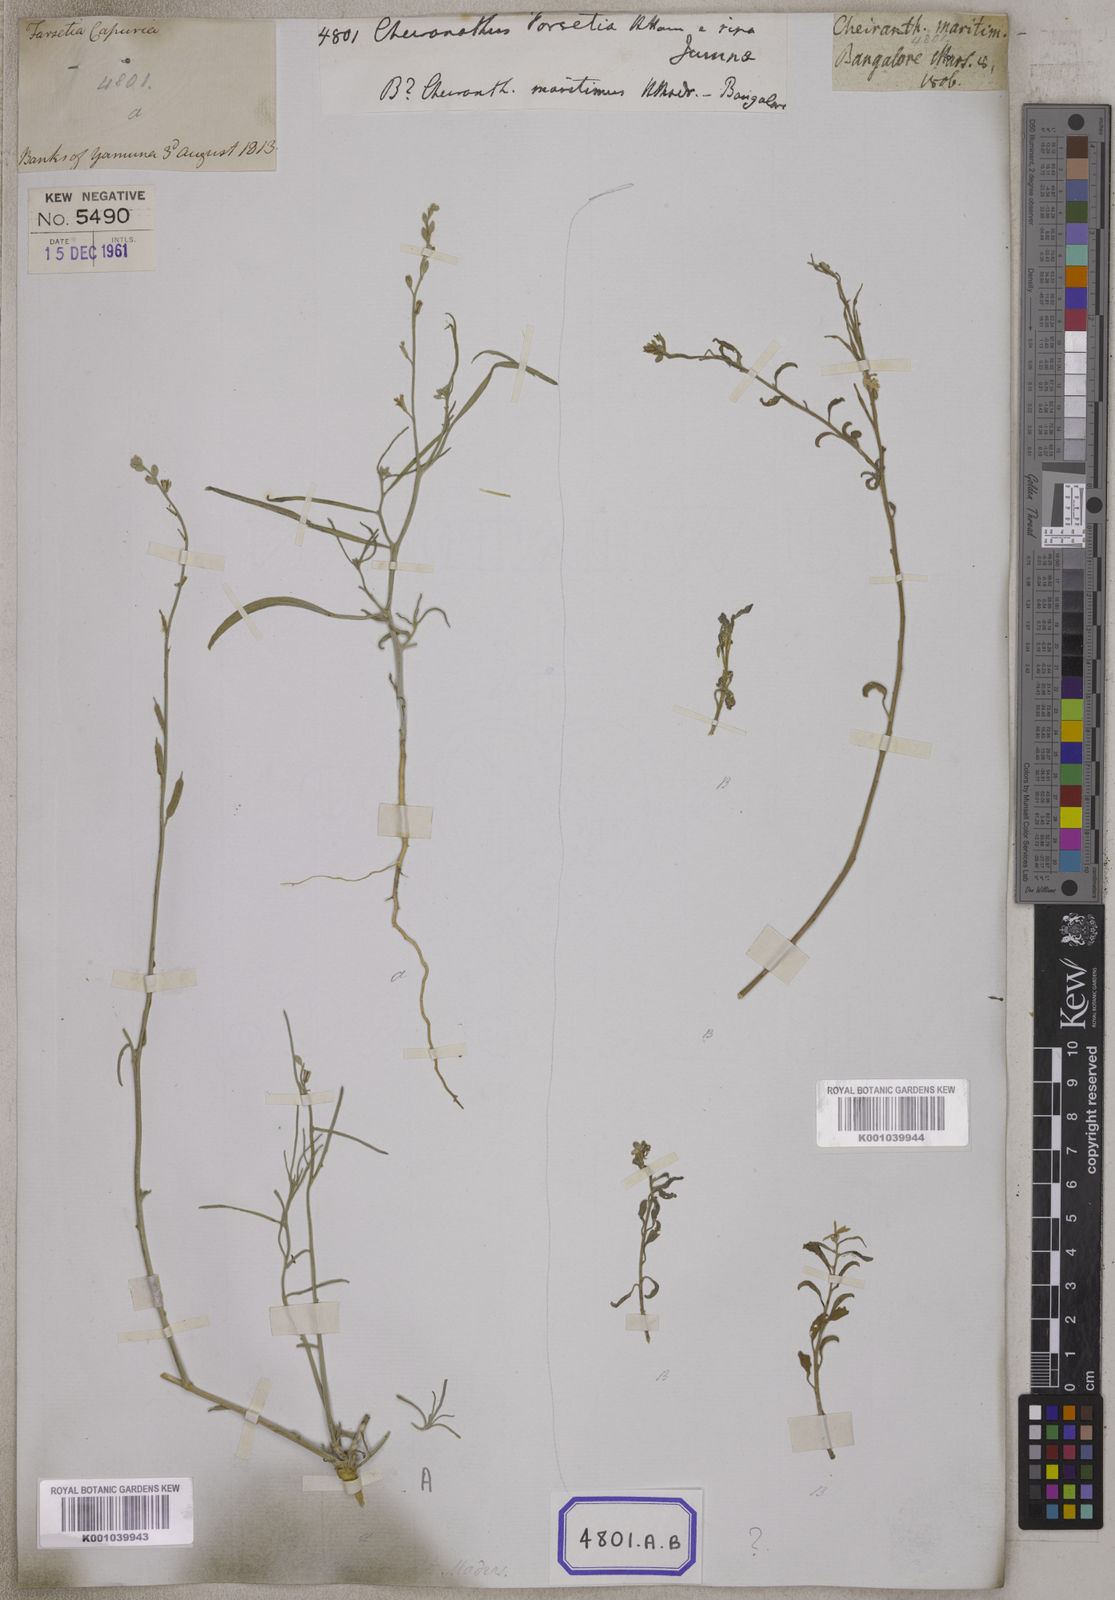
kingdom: Plantae
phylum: Tracheophyta
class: Magnoliopsida
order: Brassicales
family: Brassicaceae
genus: Erysimum
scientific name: Erysimum
